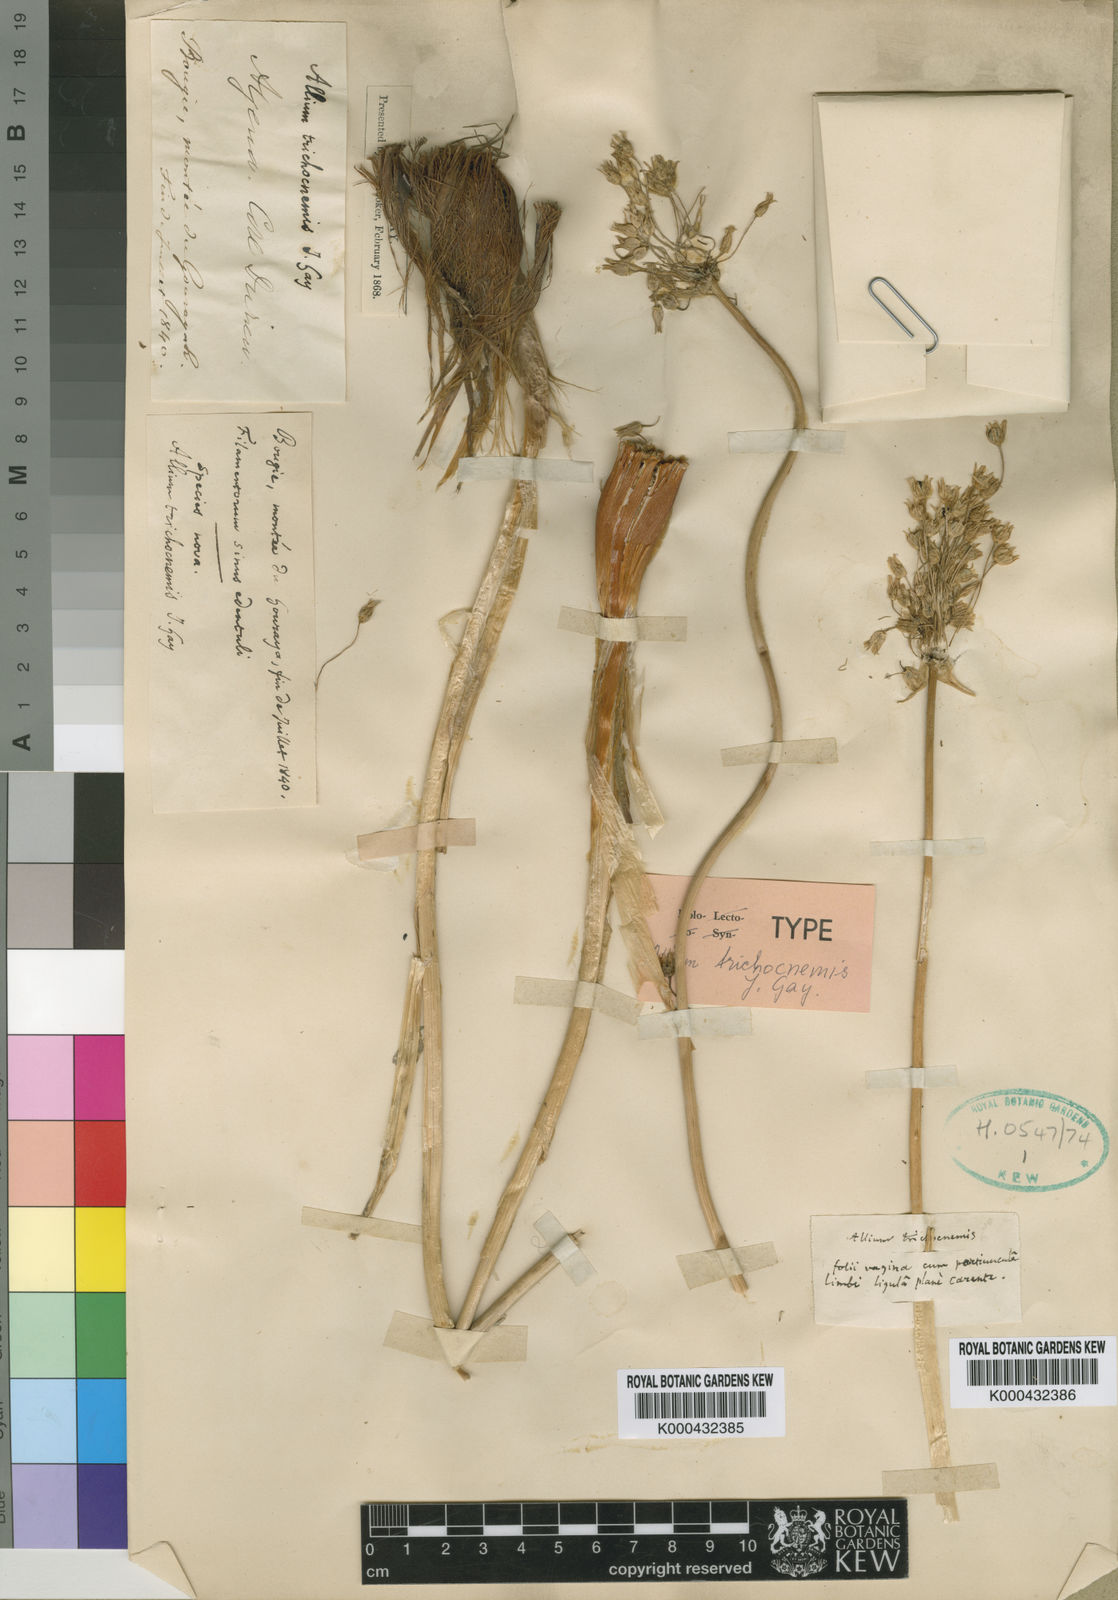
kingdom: Plantae
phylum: Tracheophyta
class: Liliopsida
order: Asparagales
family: Amaryllidaceae
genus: Allium
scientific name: Allium trichocnemis
